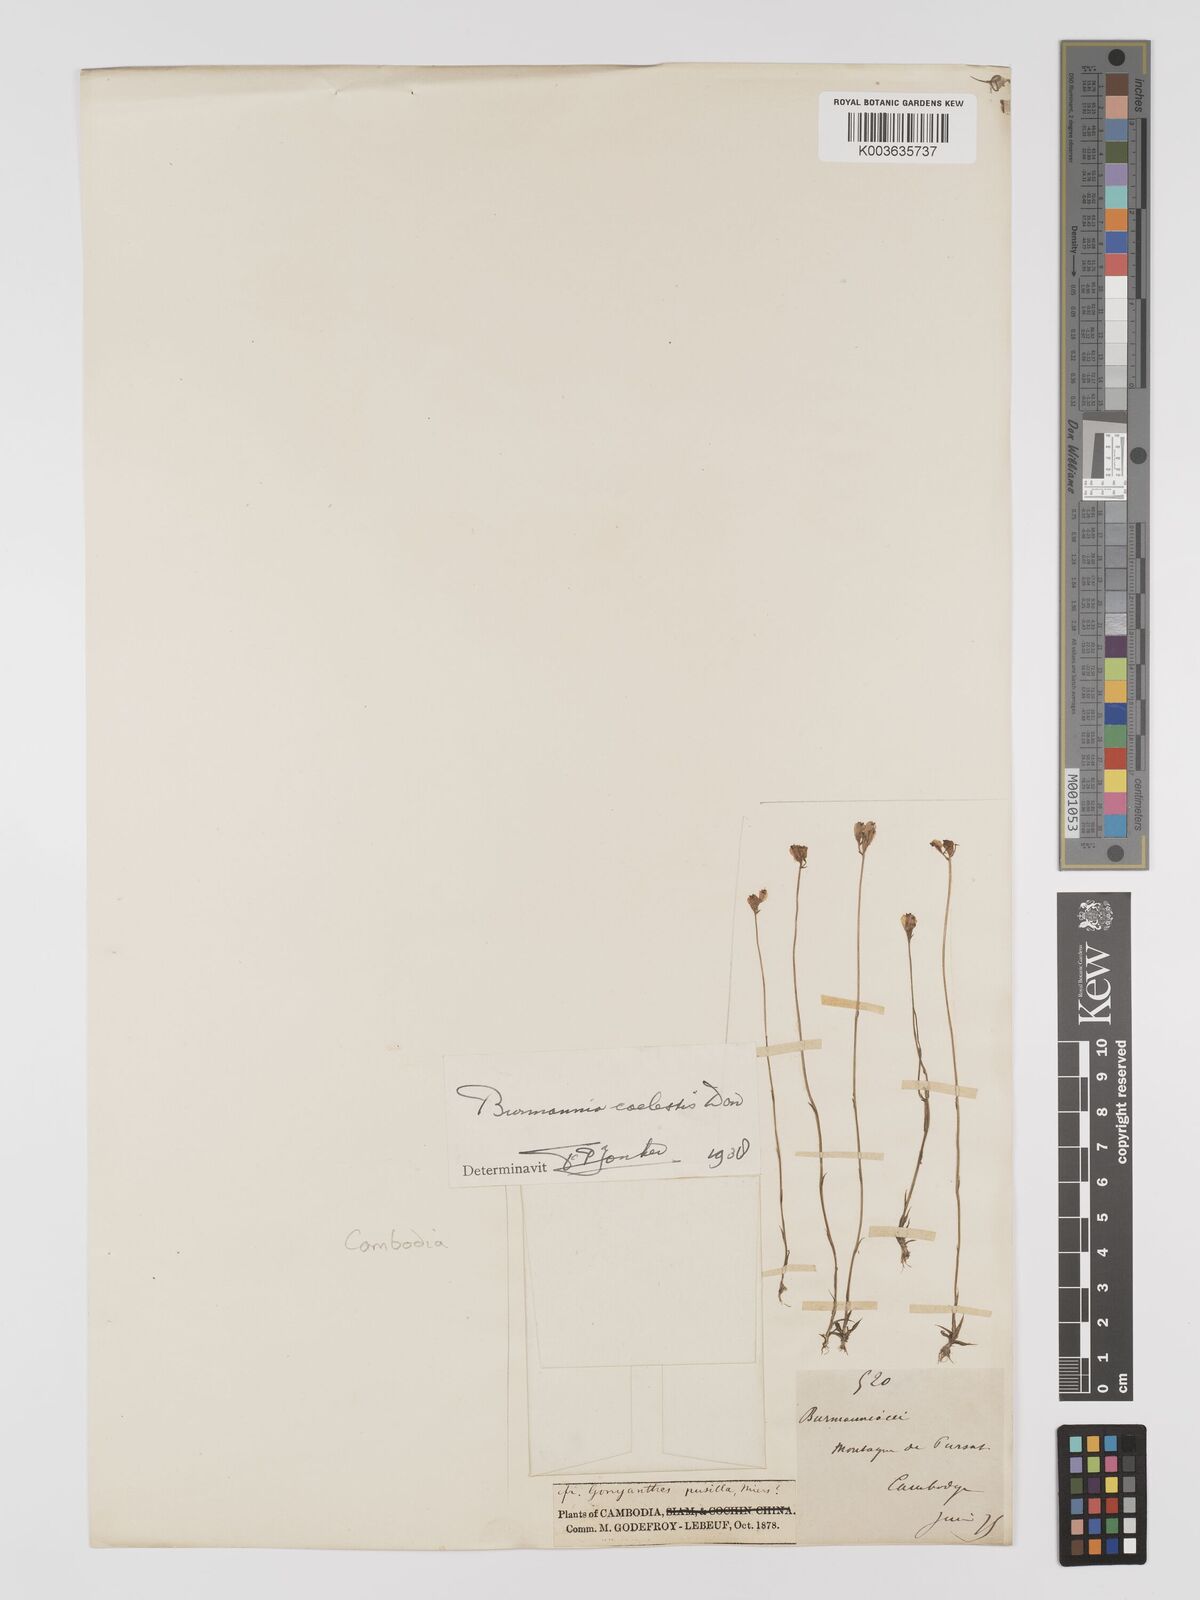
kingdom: Plantae
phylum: Tracheophyta
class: Liliopsida
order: Dioscoreales
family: Burmanniaceae
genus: Burmannia
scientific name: Burmannia coelestis
